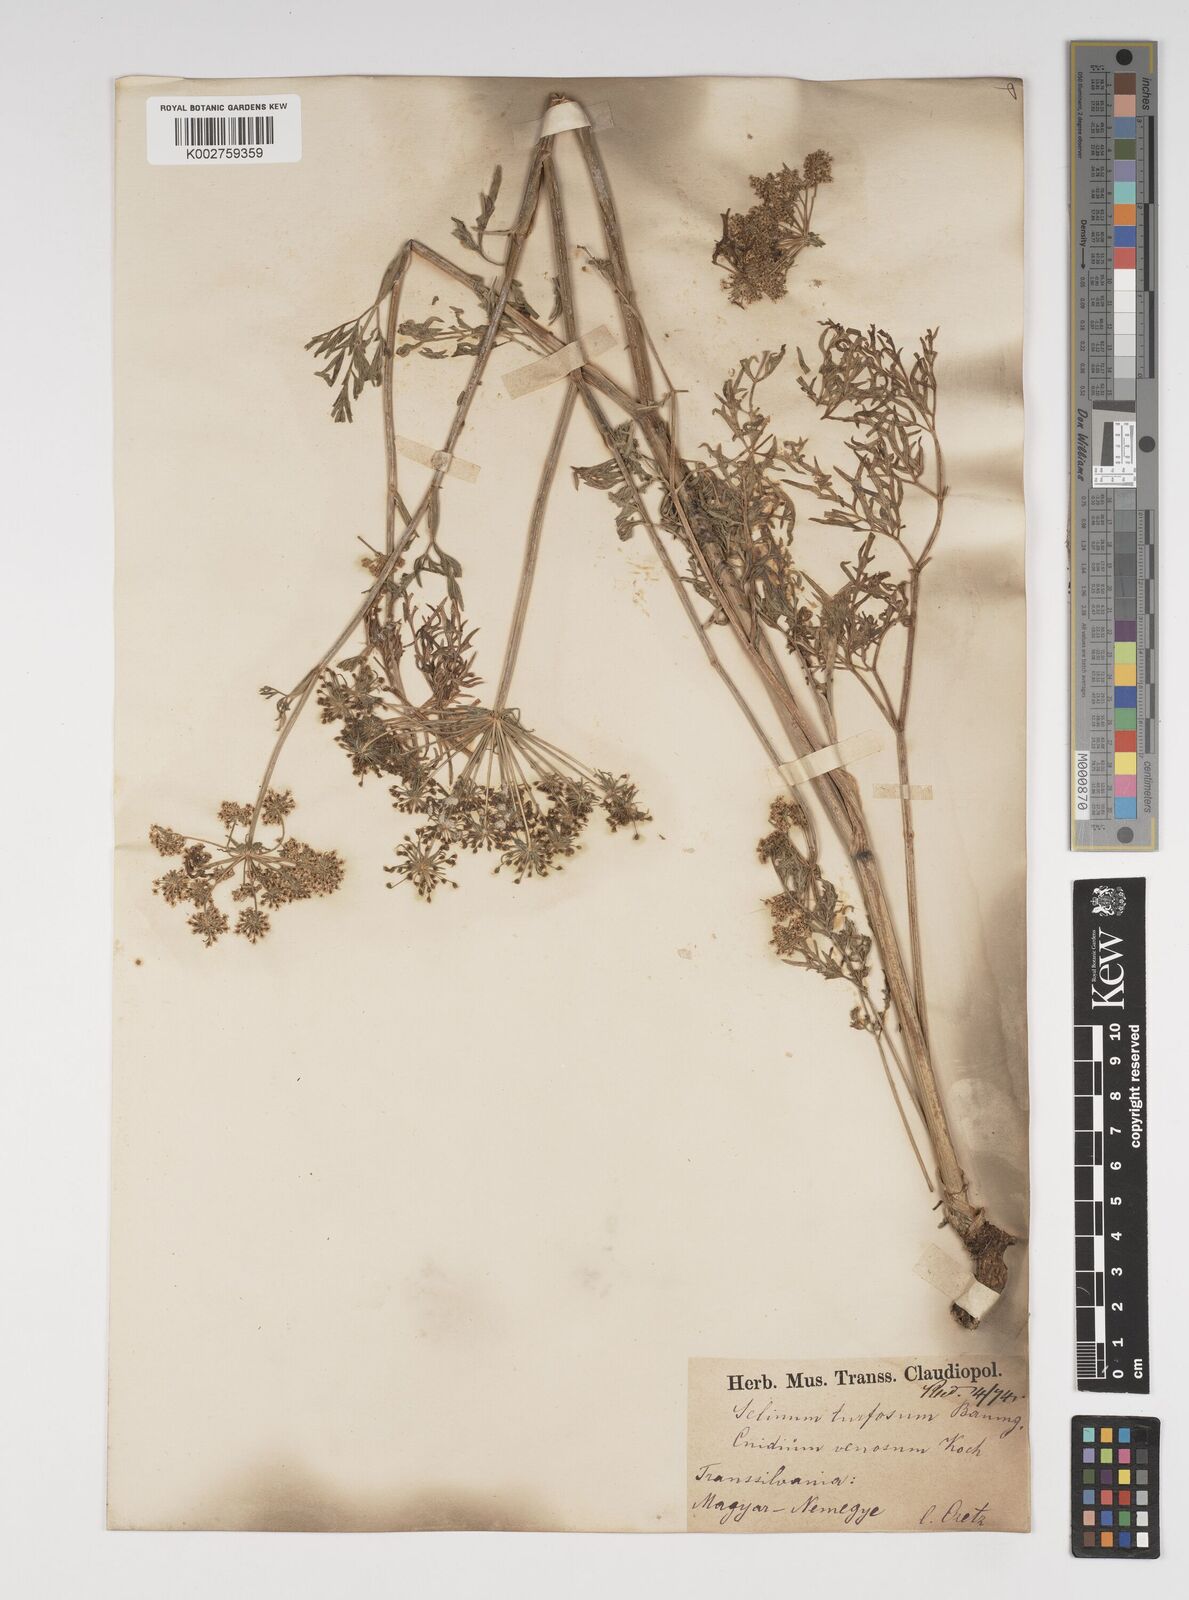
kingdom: Plantae
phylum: Tracheophyta
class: Magnoliopsida
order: Apiales
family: Apiaceae
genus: Kadenia
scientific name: Kadenia dubia
